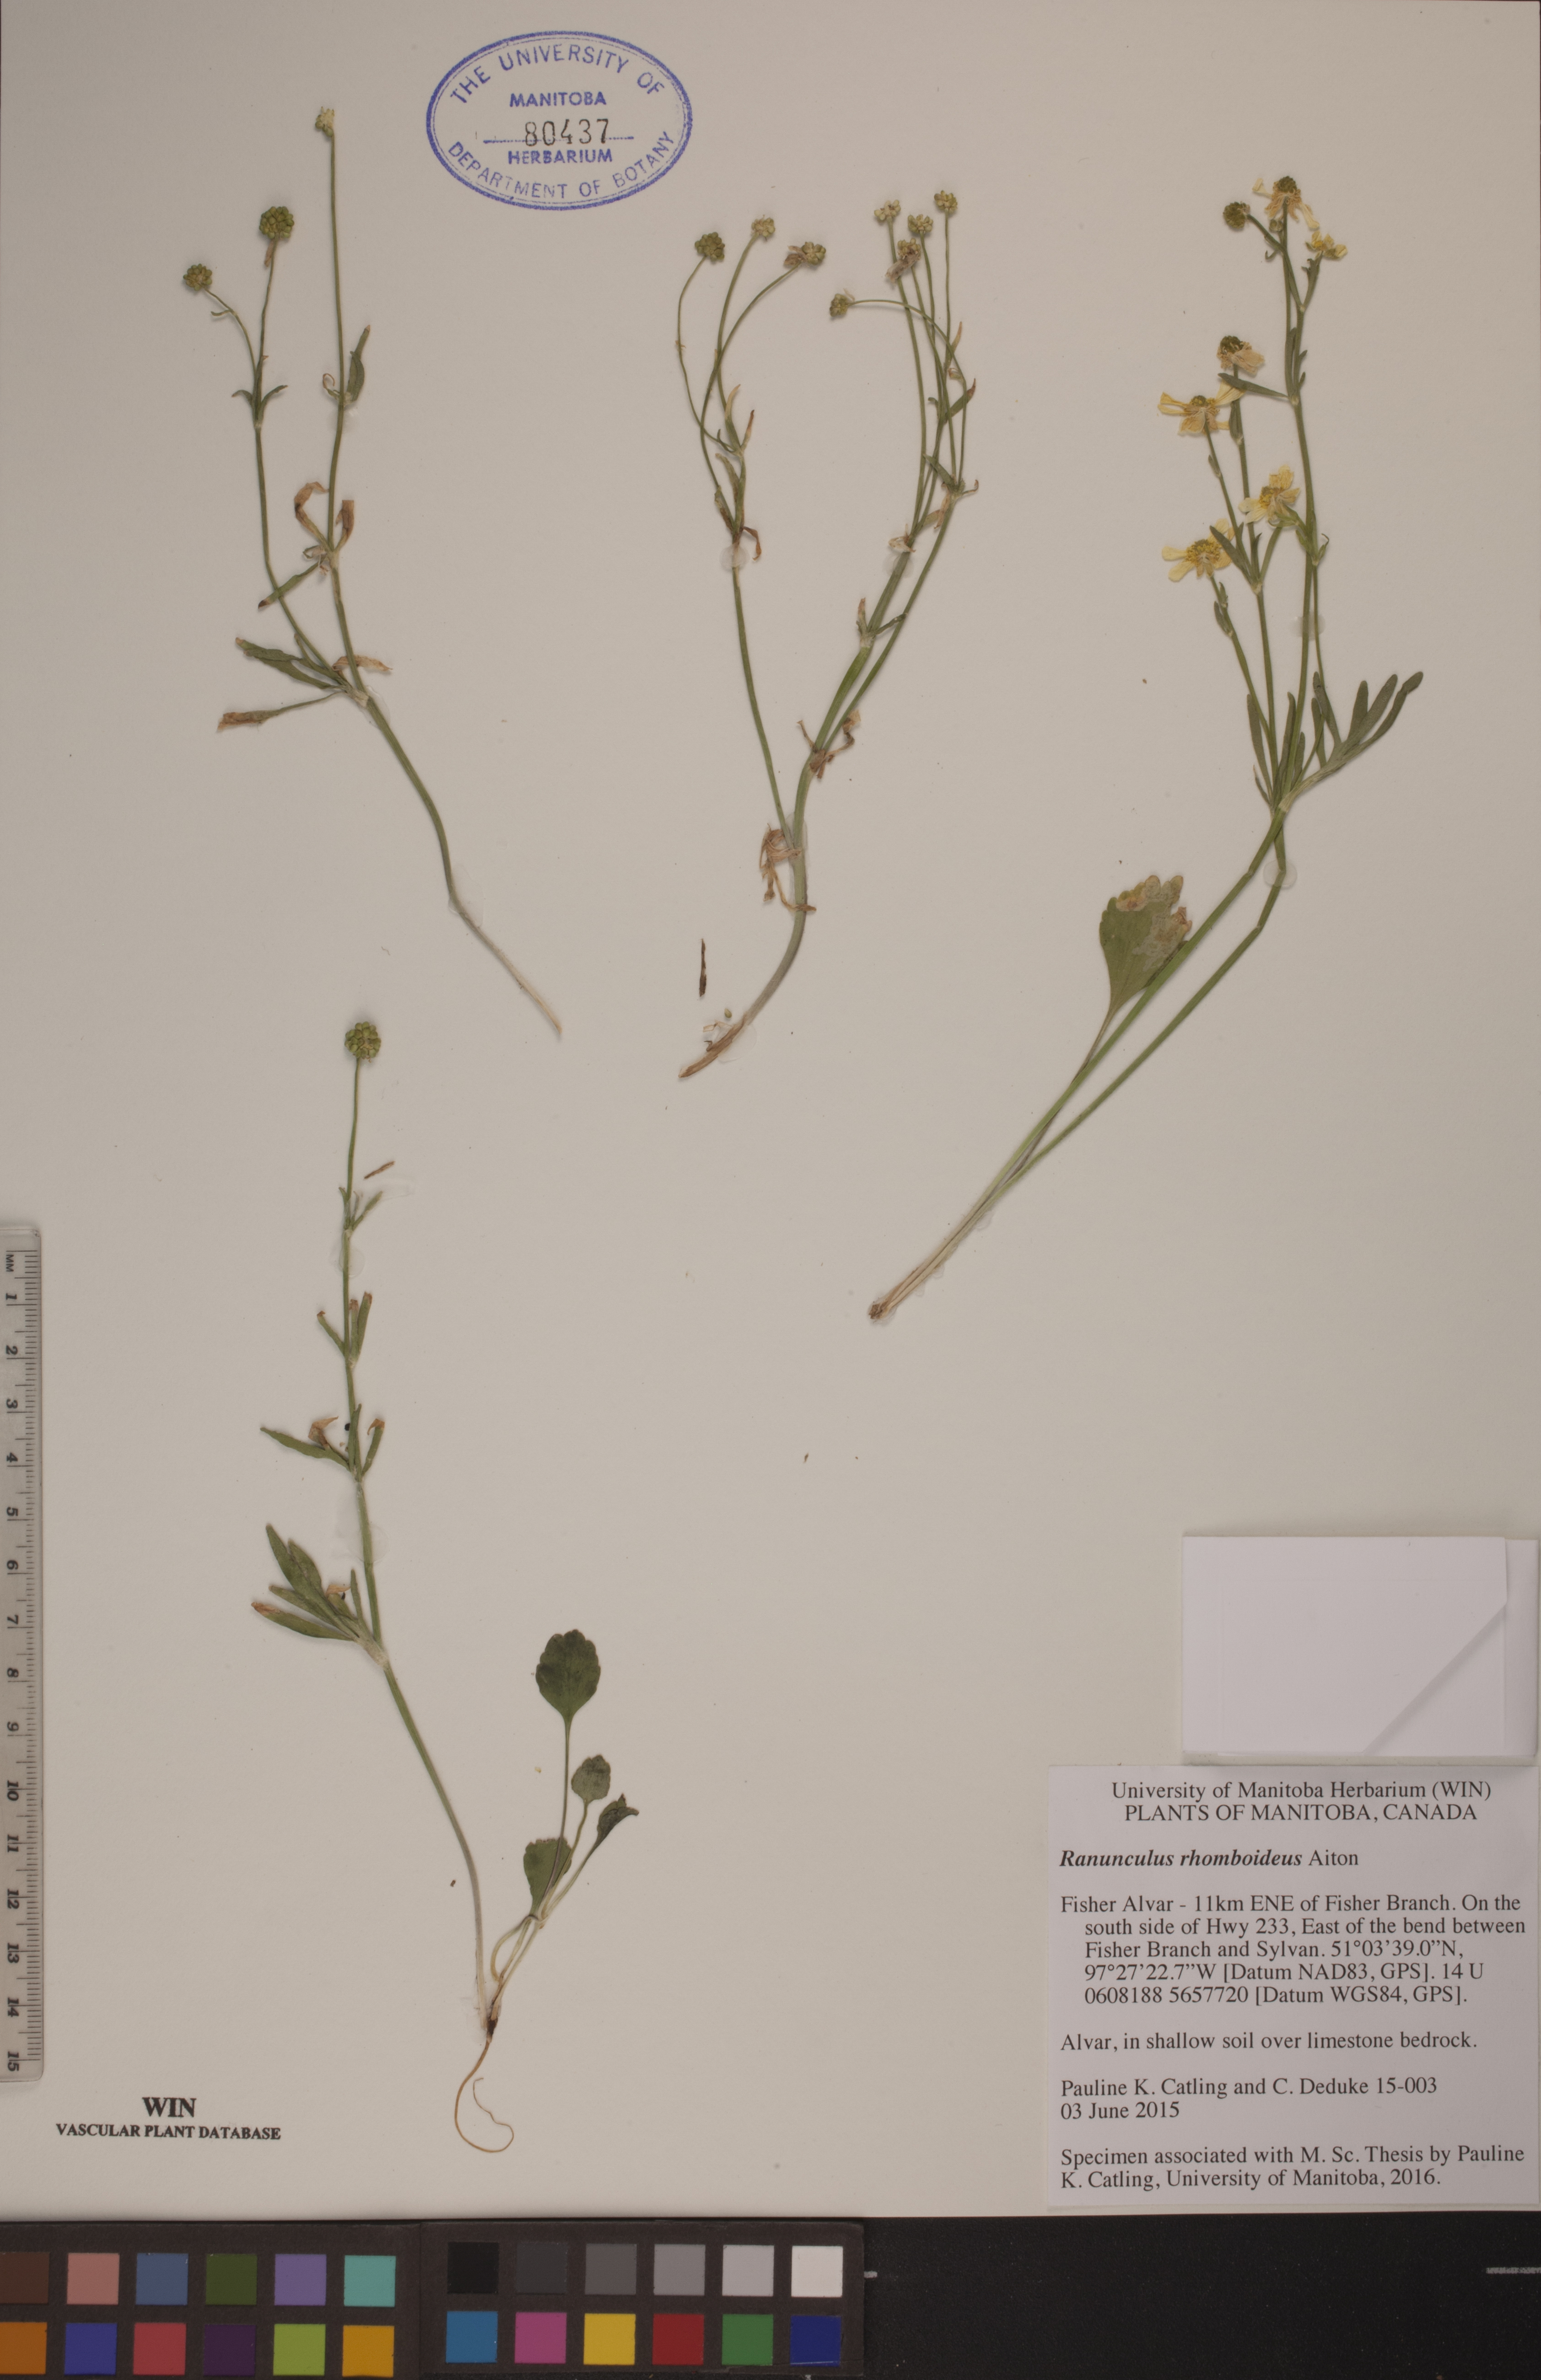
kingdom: Plantae
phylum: Tracheophyta
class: Magnoliopsida
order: Ranunculales
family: Ranunculaceae
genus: Ranunculus
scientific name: Ranunculus rhomboideus
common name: Prairie buttercup
